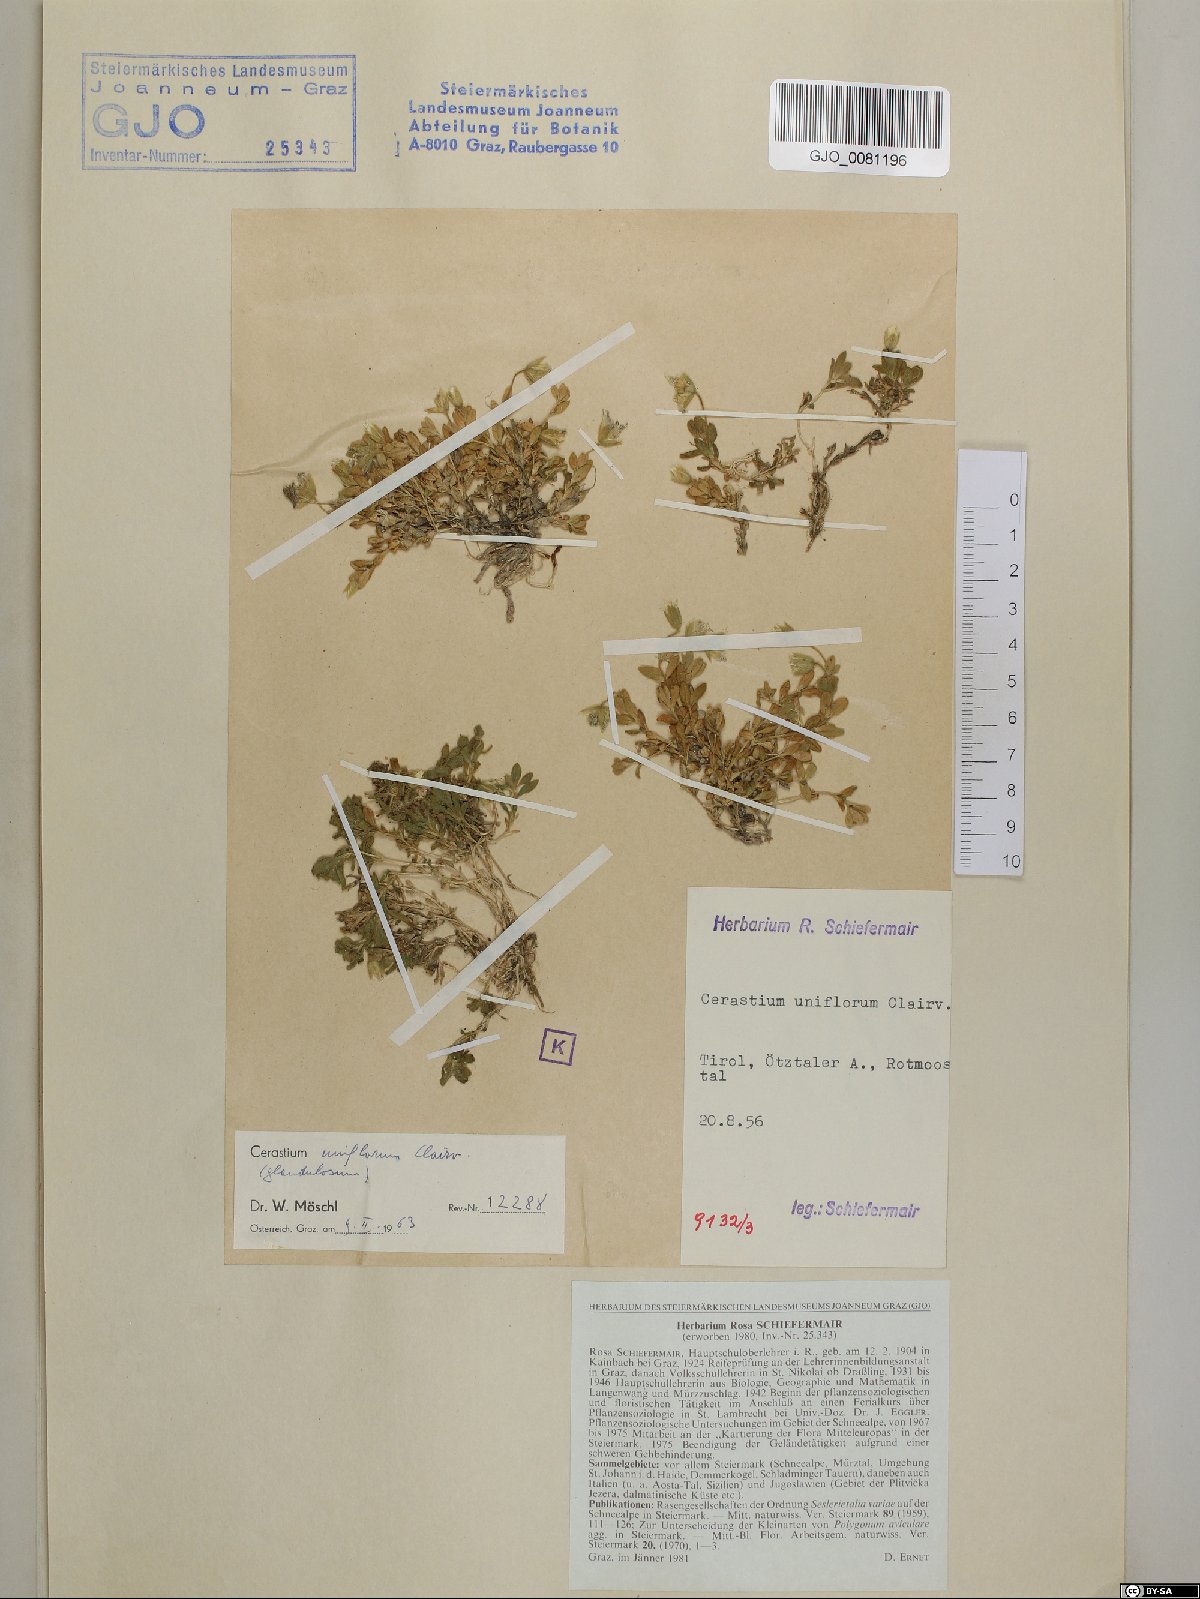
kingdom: Plantae
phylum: Tracheophyta
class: Magnoliopsida
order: Caryophyllales
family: Caryophyllaceae
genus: Cerastium
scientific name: Cerastium uniflorum
